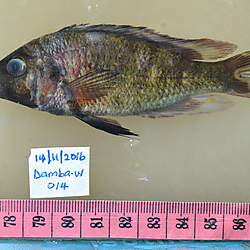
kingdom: Animalia
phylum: Chordata
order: Perciformes
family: Cichlidae
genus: Haplochromis
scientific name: Haplochromis
